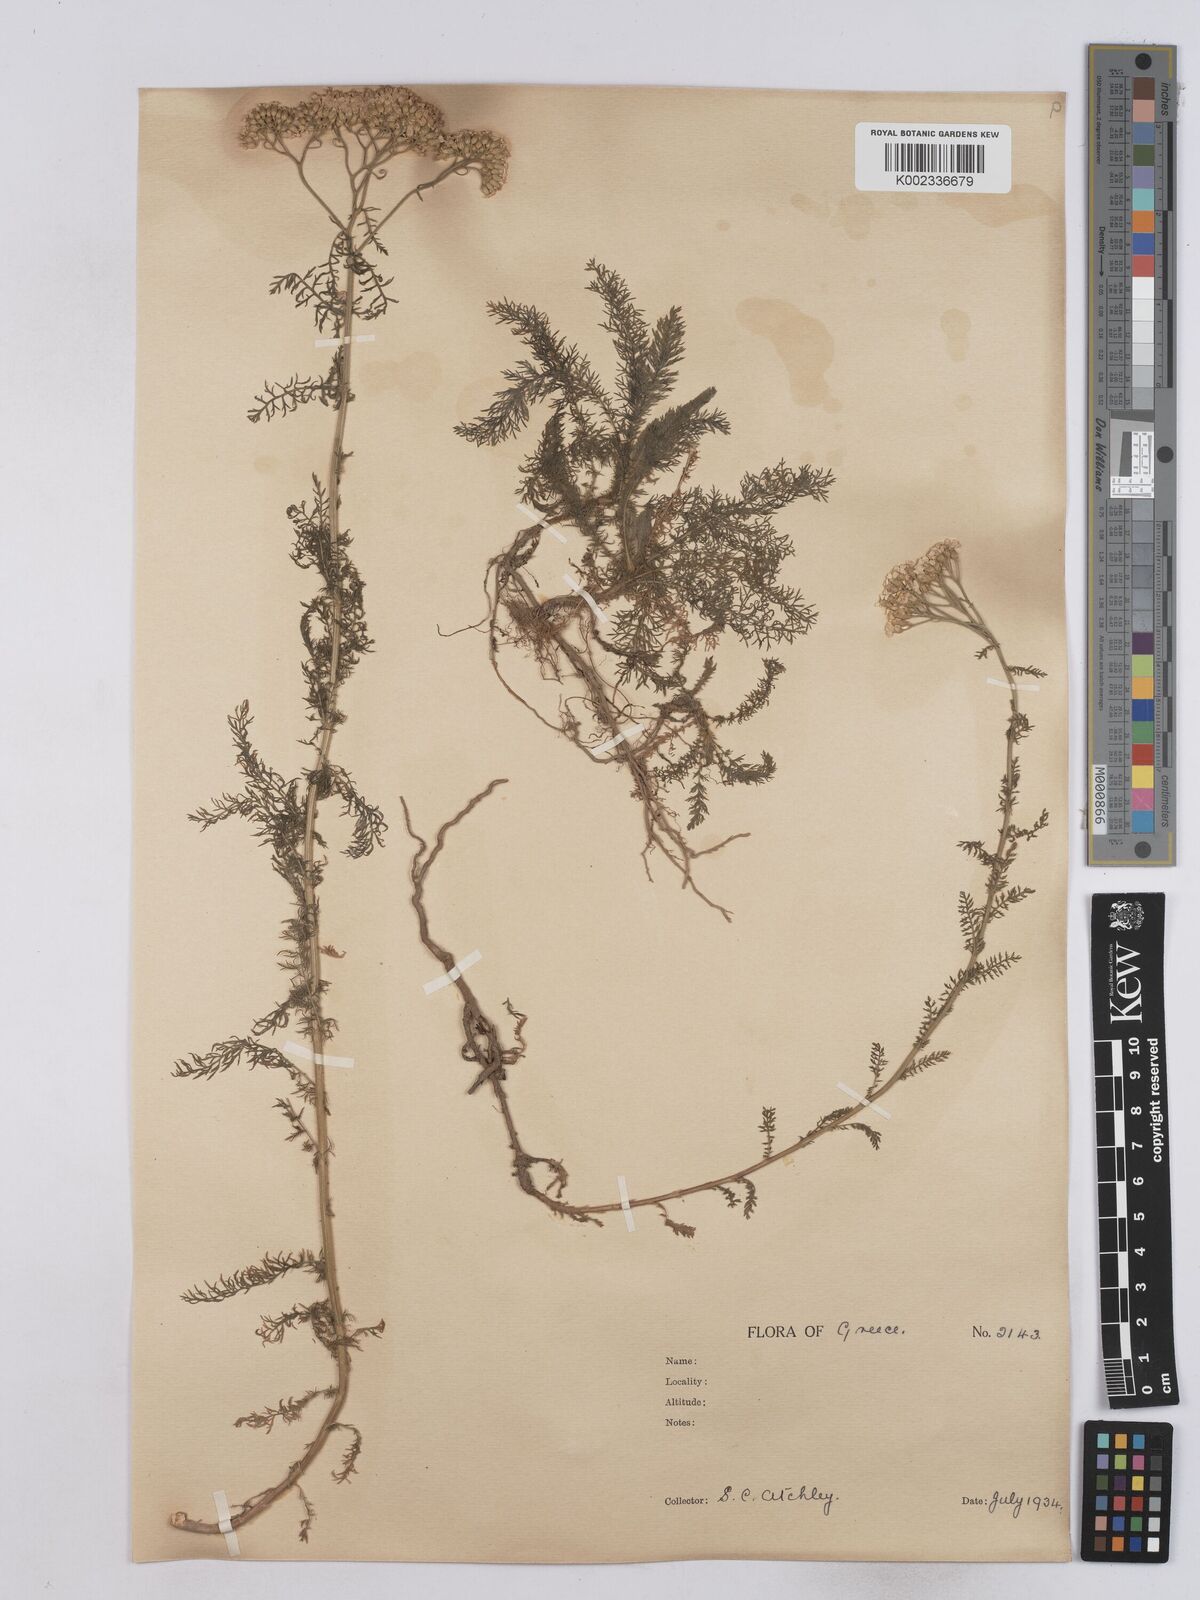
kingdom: Plantae
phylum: Tracheophyta
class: Magnoliopsida
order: Asterales
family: Asteraceae
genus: Achillea
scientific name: Achillea setacea
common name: Bristly yarrow
